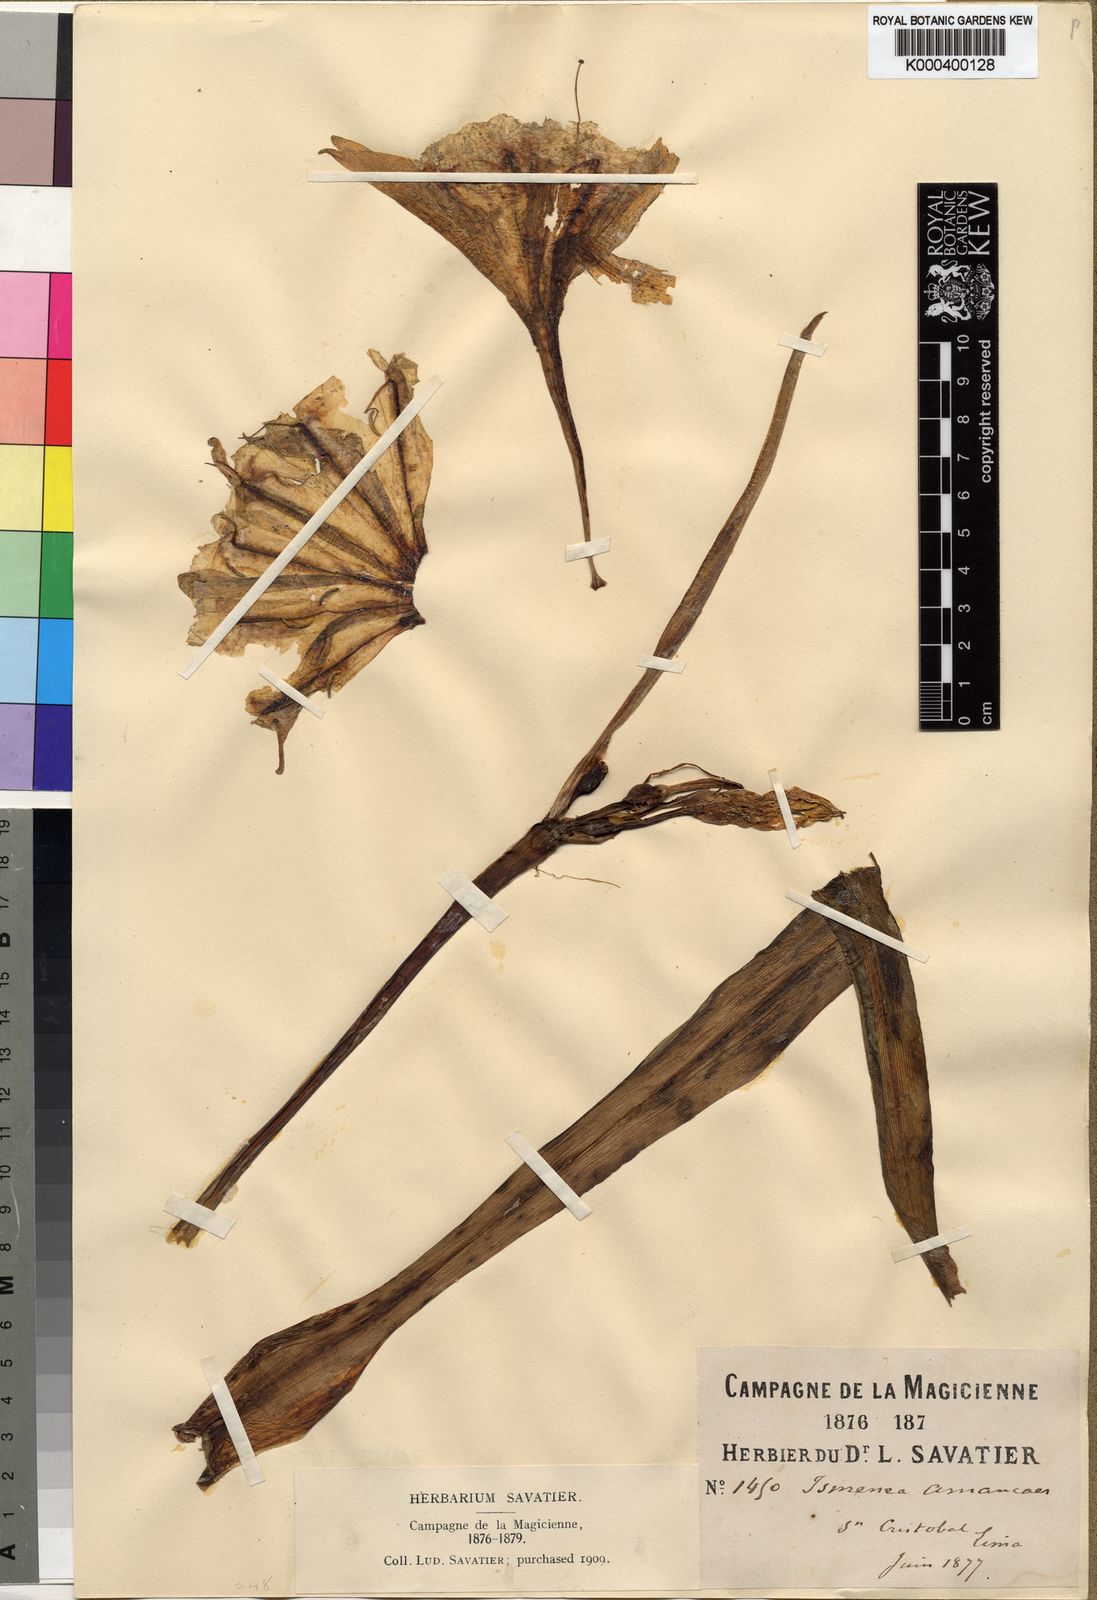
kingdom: Plantae
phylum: Tracheophyta
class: Liliopsida
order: Asparagales
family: Amaryllidaceae
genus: Ismene
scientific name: Ismene amancaes
